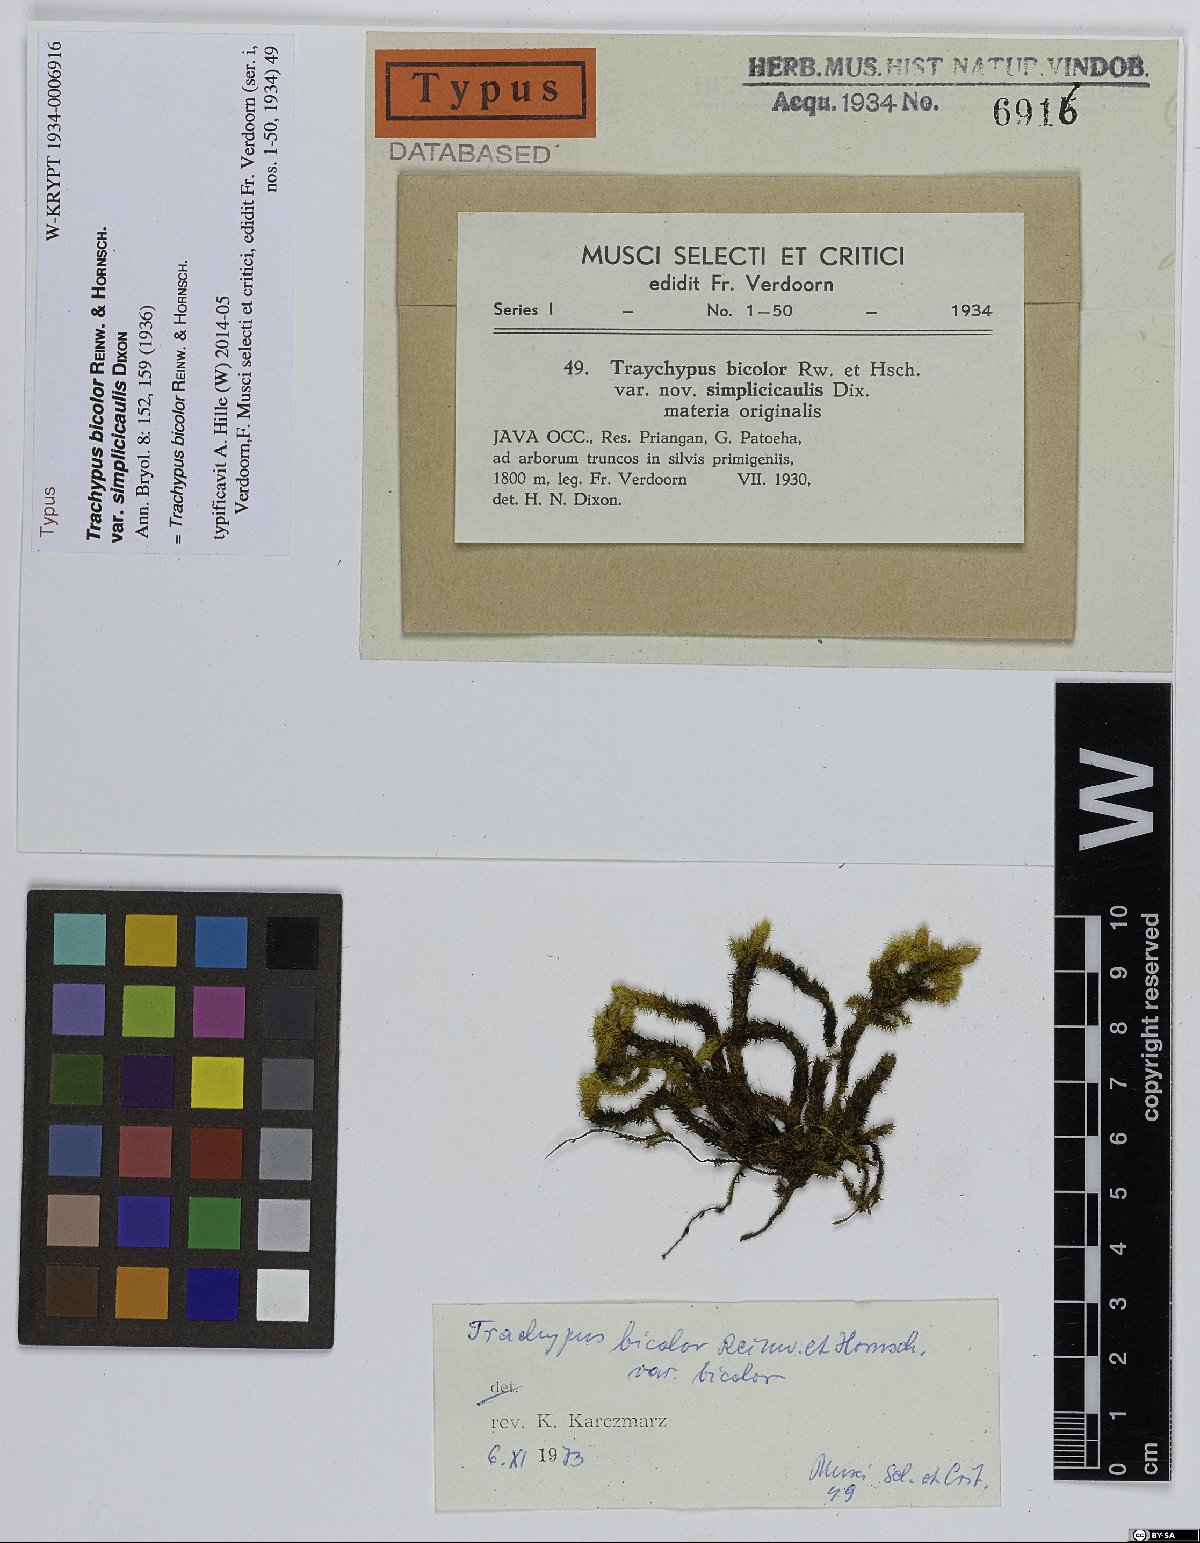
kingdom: Plantae
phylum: Bryophyta
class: Bryopsida
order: Hypnales
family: Meteoriaceae
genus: Trachypus
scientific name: Trachypus bicolor
